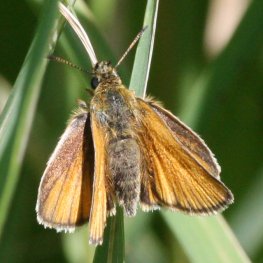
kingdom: Animalia
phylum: Arthropoda
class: Insecta
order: Lepidoptera
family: Hesperiidae
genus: Thymelicus
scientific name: Thymelicus lineola
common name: European Skipper
